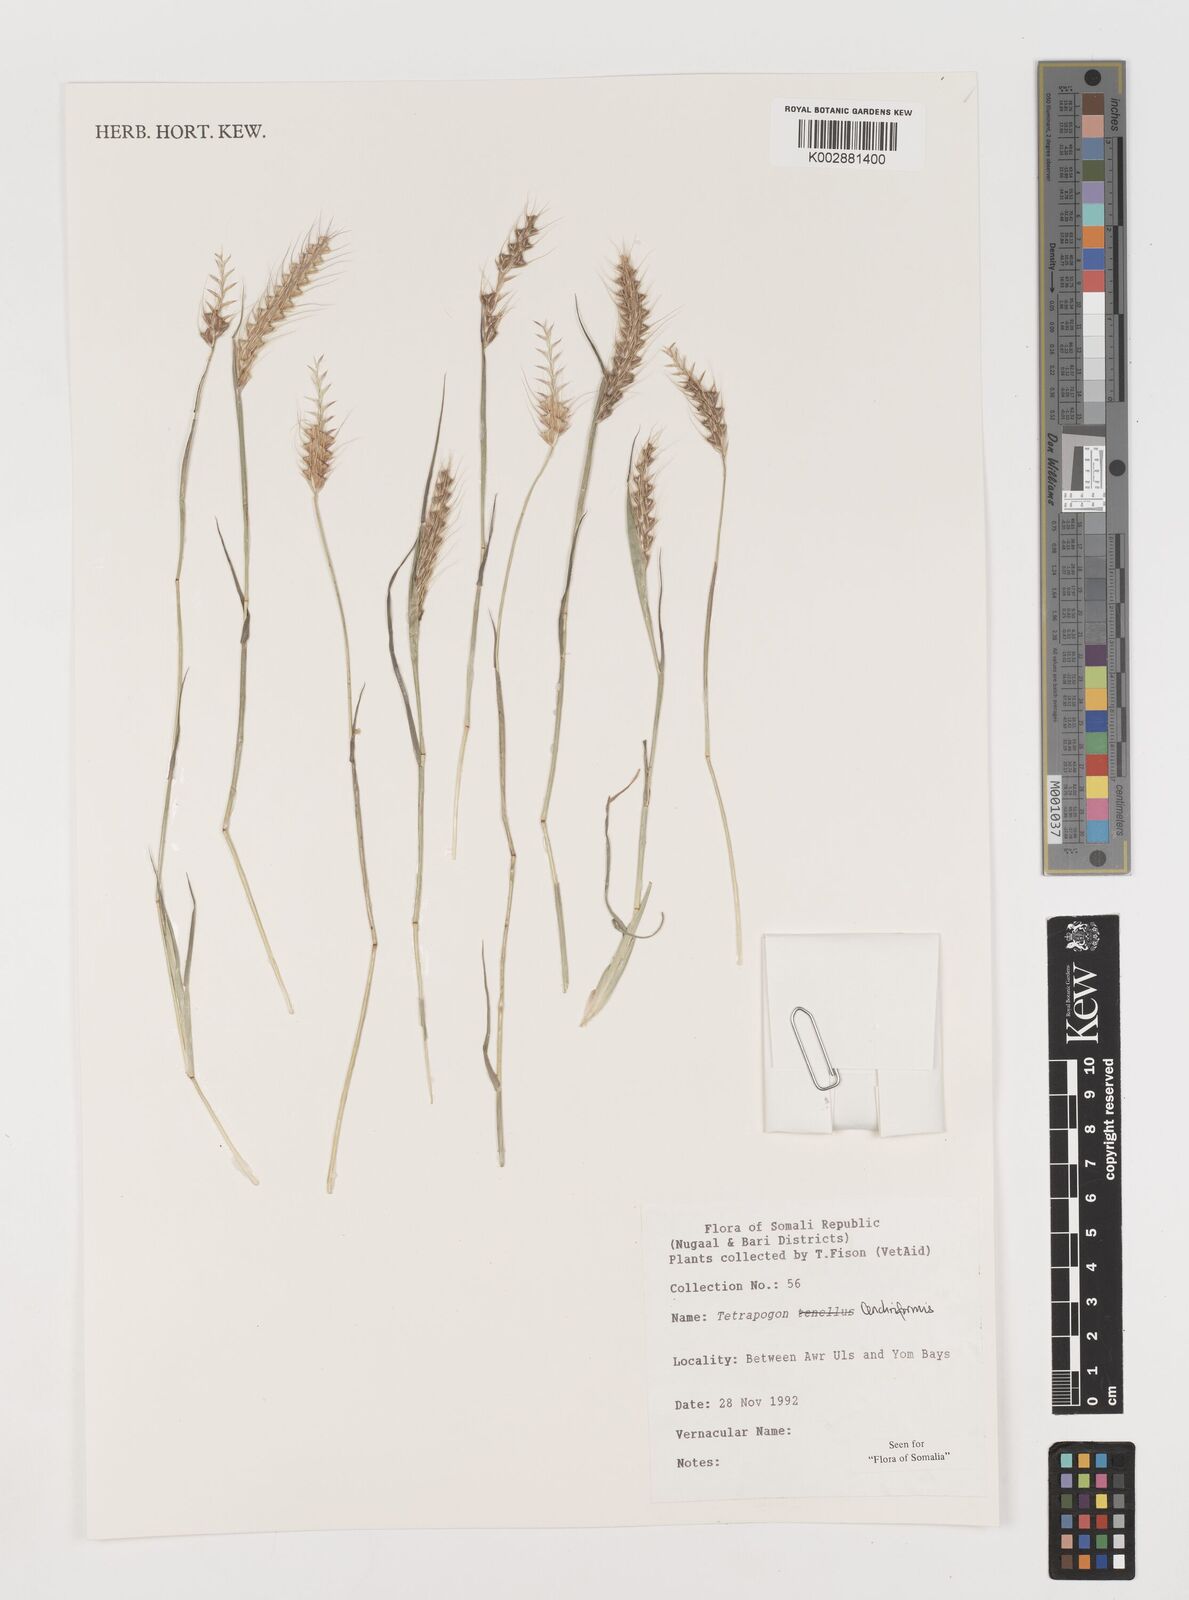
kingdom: Plantae
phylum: Tracheophyta
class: Liliopsida
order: Poales
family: Poaceae
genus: Tetrapogon
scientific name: Tetrapogon cenchriformis
